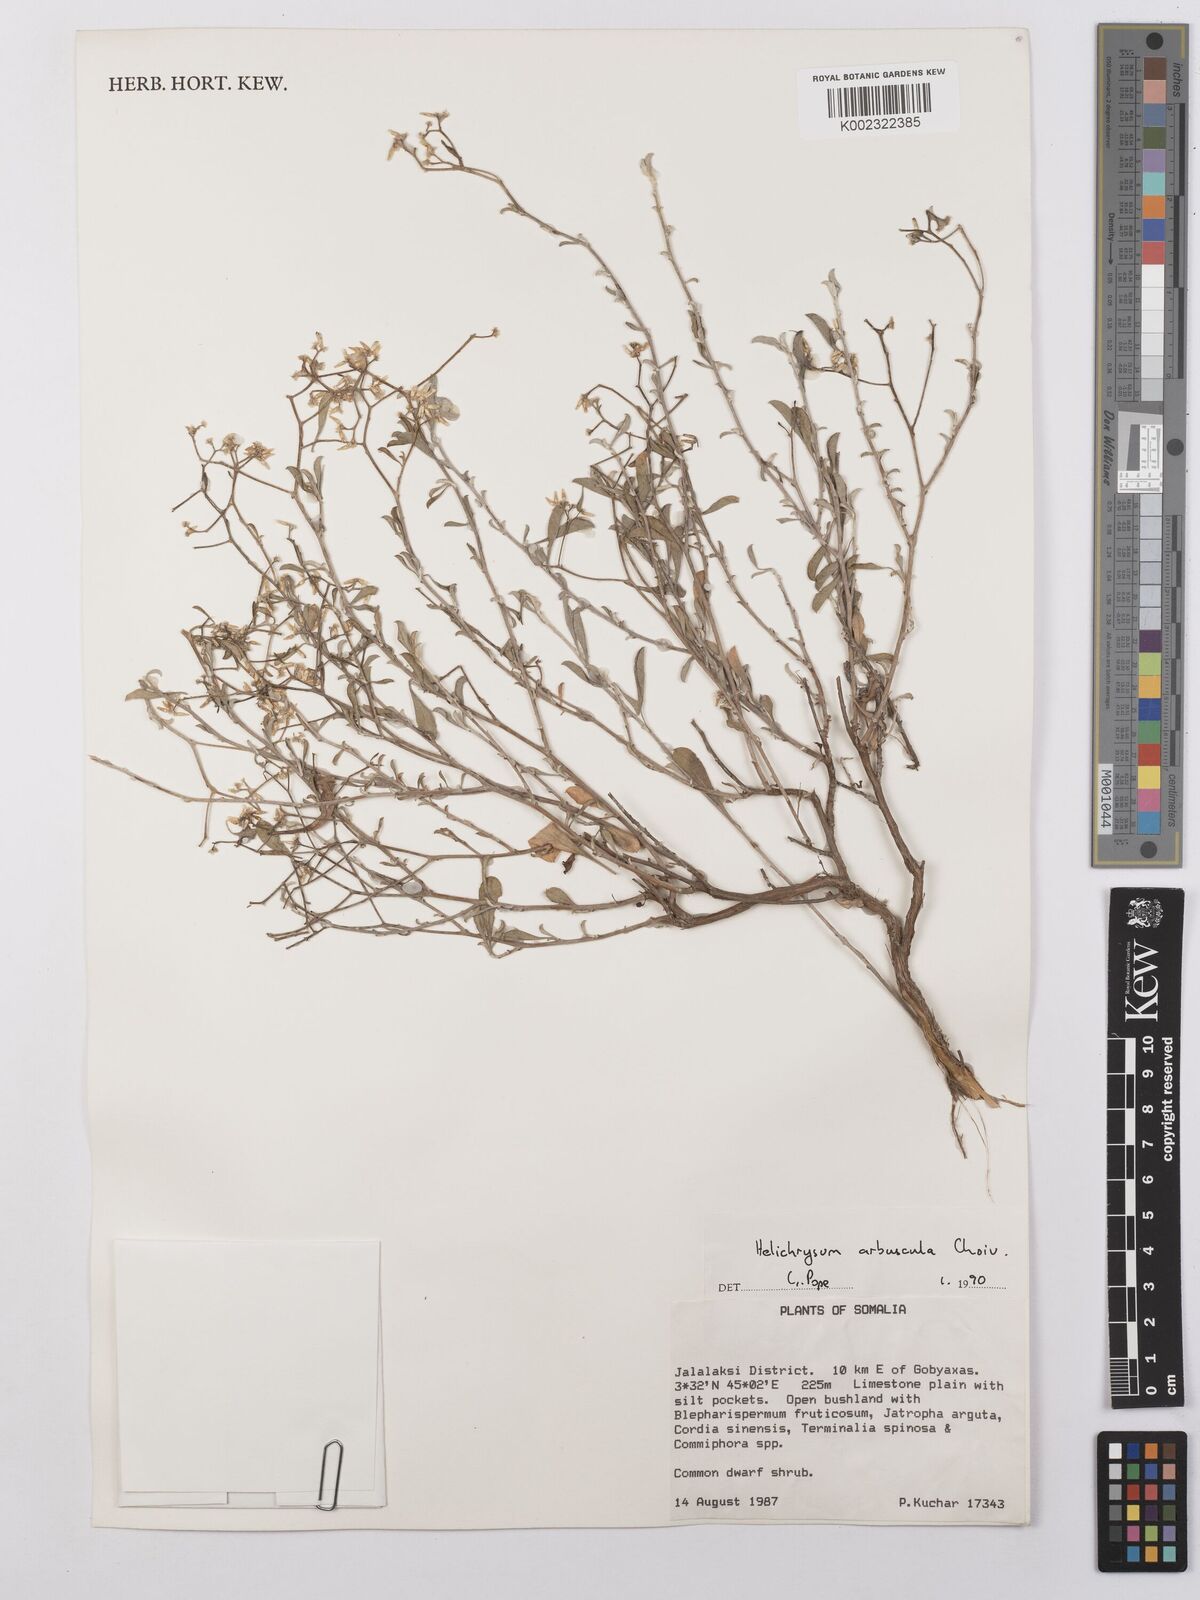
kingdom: Plantae
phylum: Tracheophyta
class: Magnoliopsida
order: Asterales
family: Asteraceae
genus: Helichrysum
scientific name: Helichrysum arbuscula
